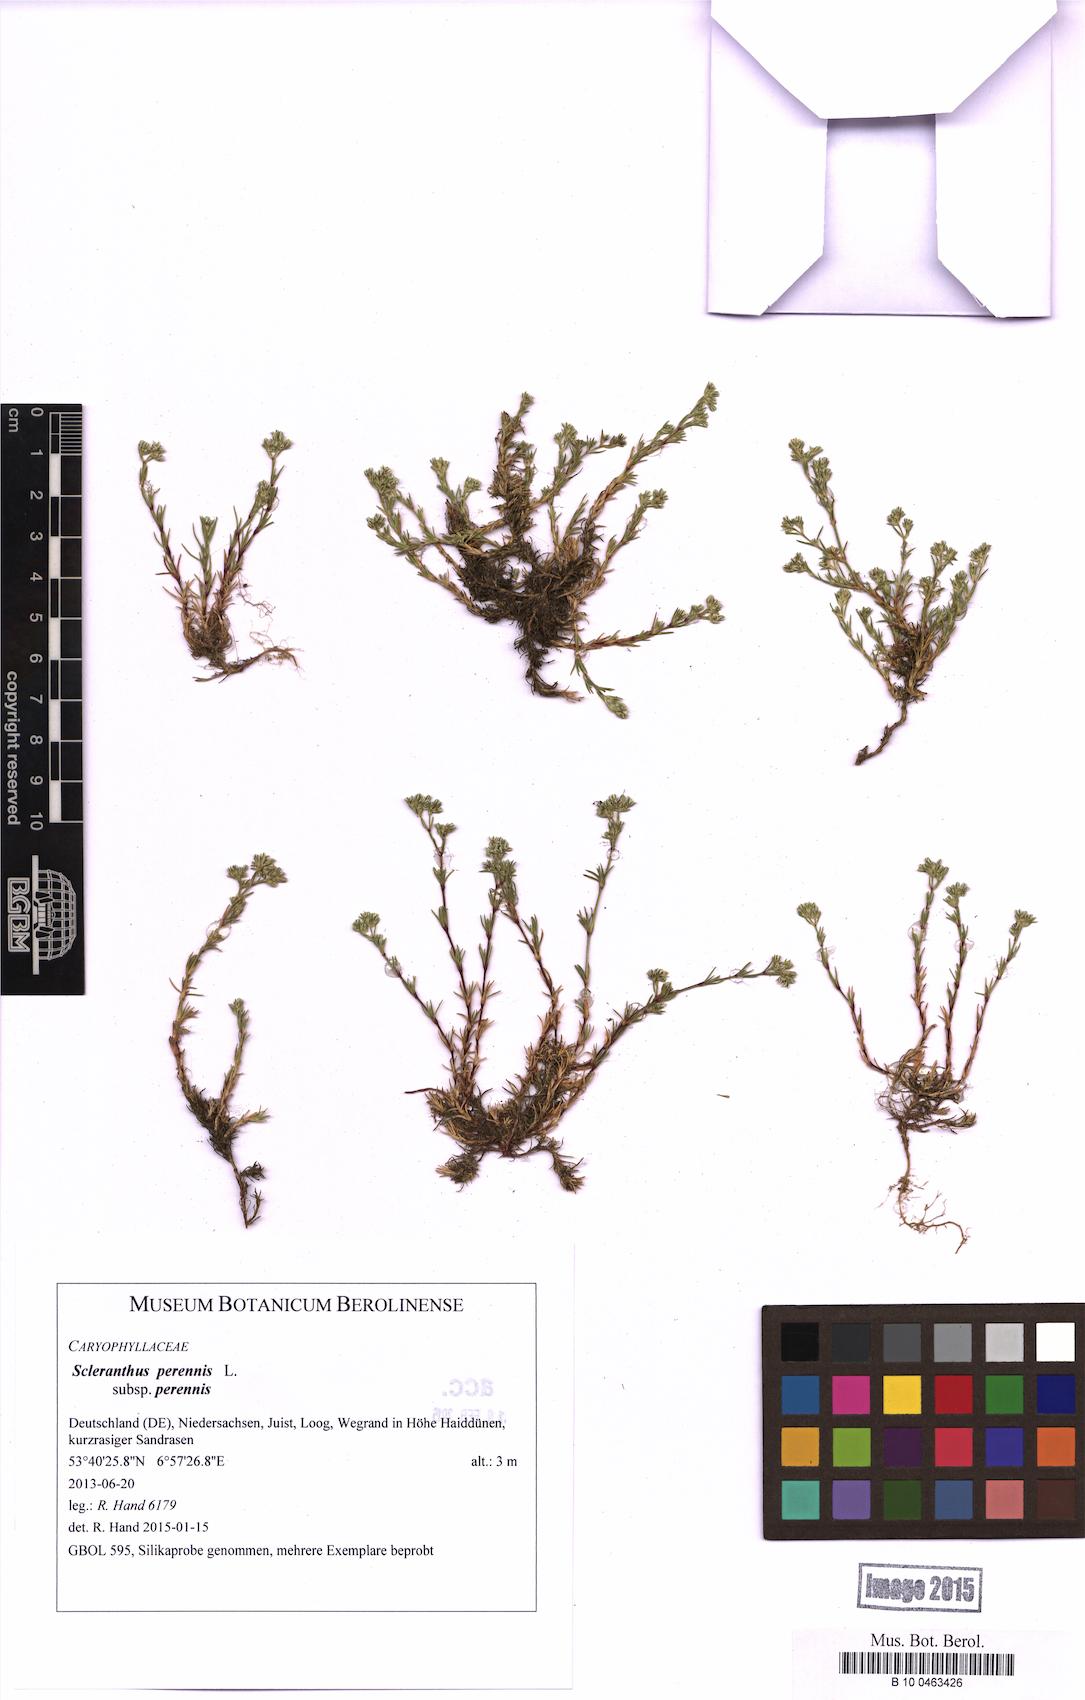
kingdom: Plantae
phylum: Tracheophyta
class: Magnoliopsida
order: Caryophyllales
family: Caryophyllaceae
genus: Scleranthus
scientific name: Scleranthus perennis
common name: Perennial knawel
